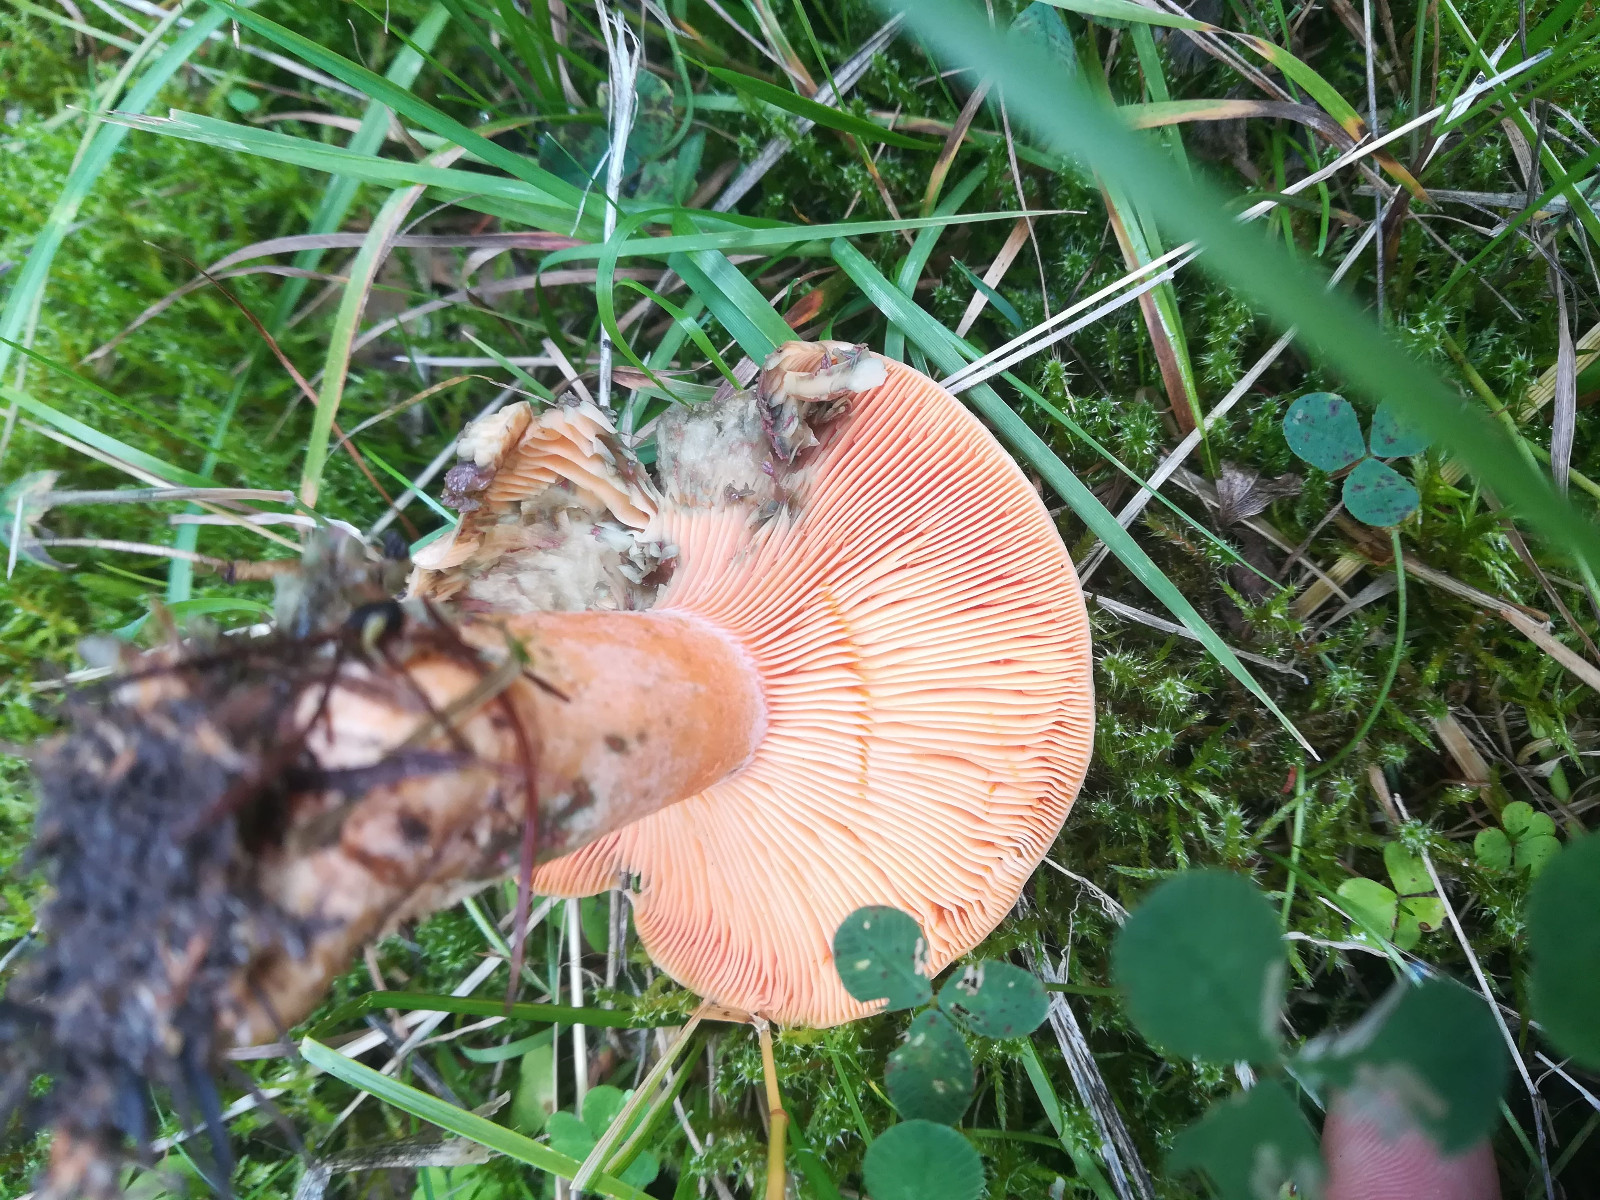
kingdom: Fungi
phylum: Basidiomycota
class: Agaricomycetes
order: Russulales
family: Russulaceae
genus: Lactarius
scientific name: Lactarius deterrimus
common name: gran-mælkehat
